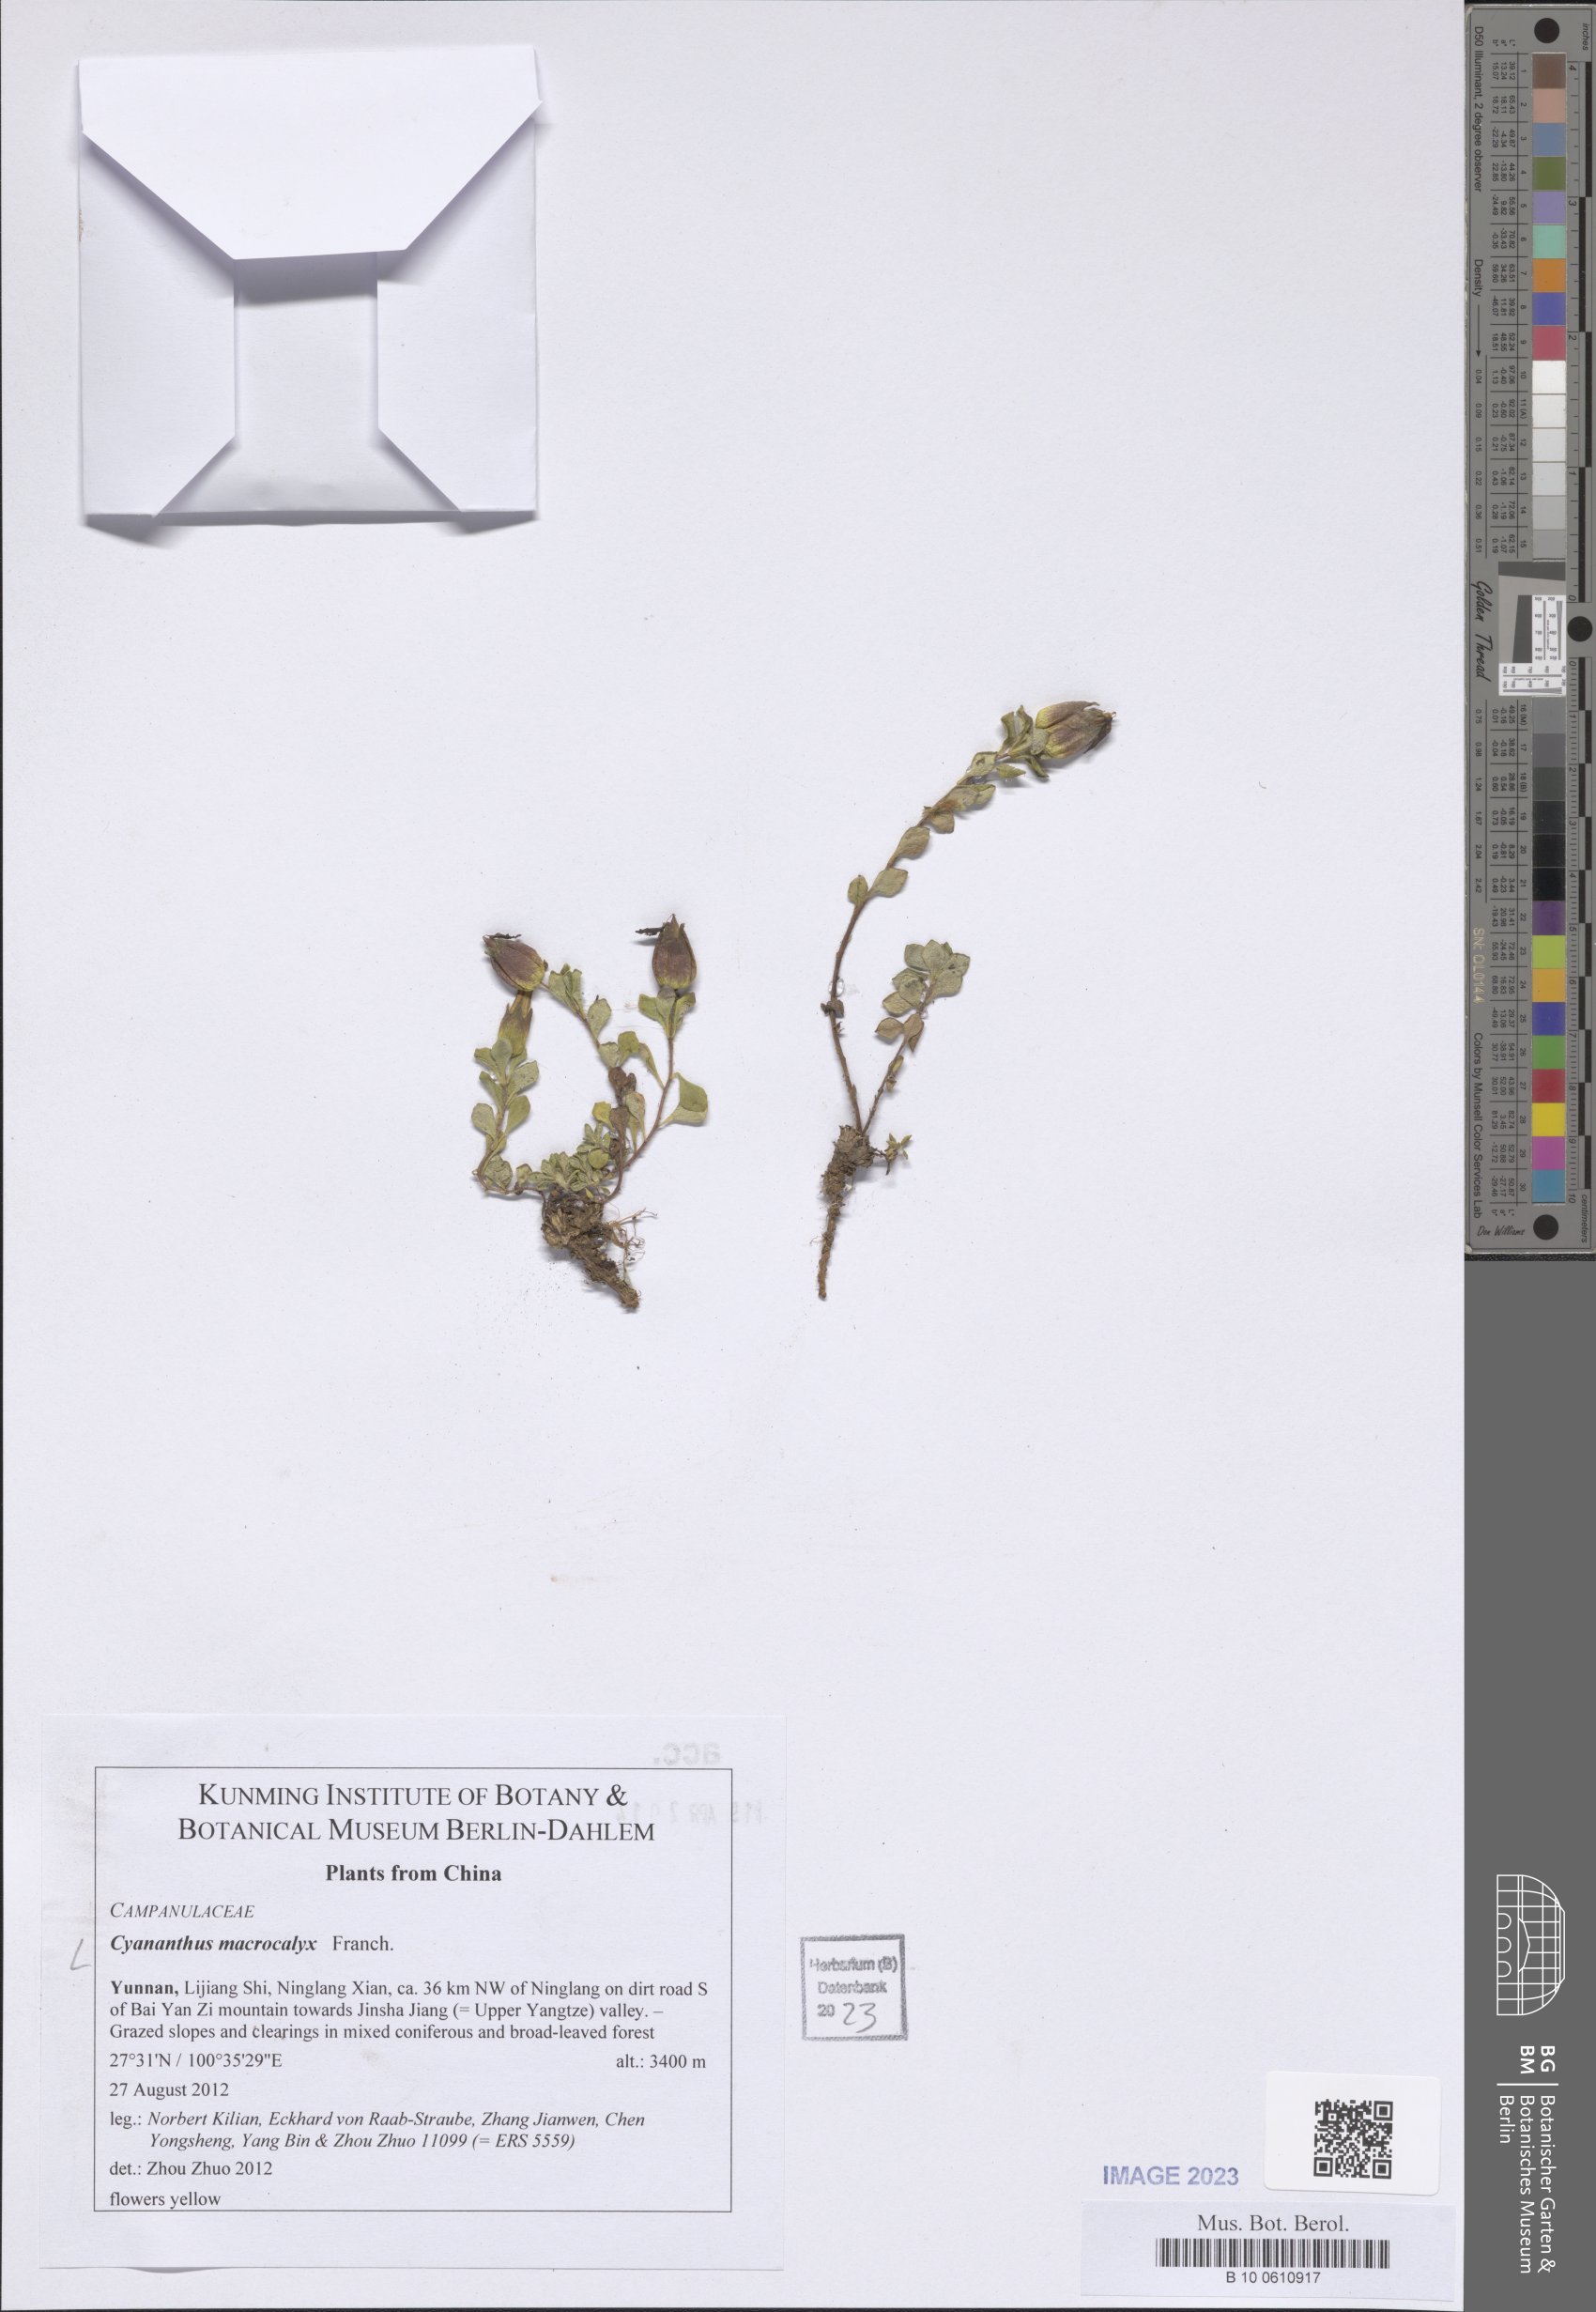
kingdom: Plantae
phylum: Tracheophyta
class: Magnoliopsida
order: Asterales
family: Campanulaceae
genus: Cyananthus
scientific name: Cyananthus macrocalyx
